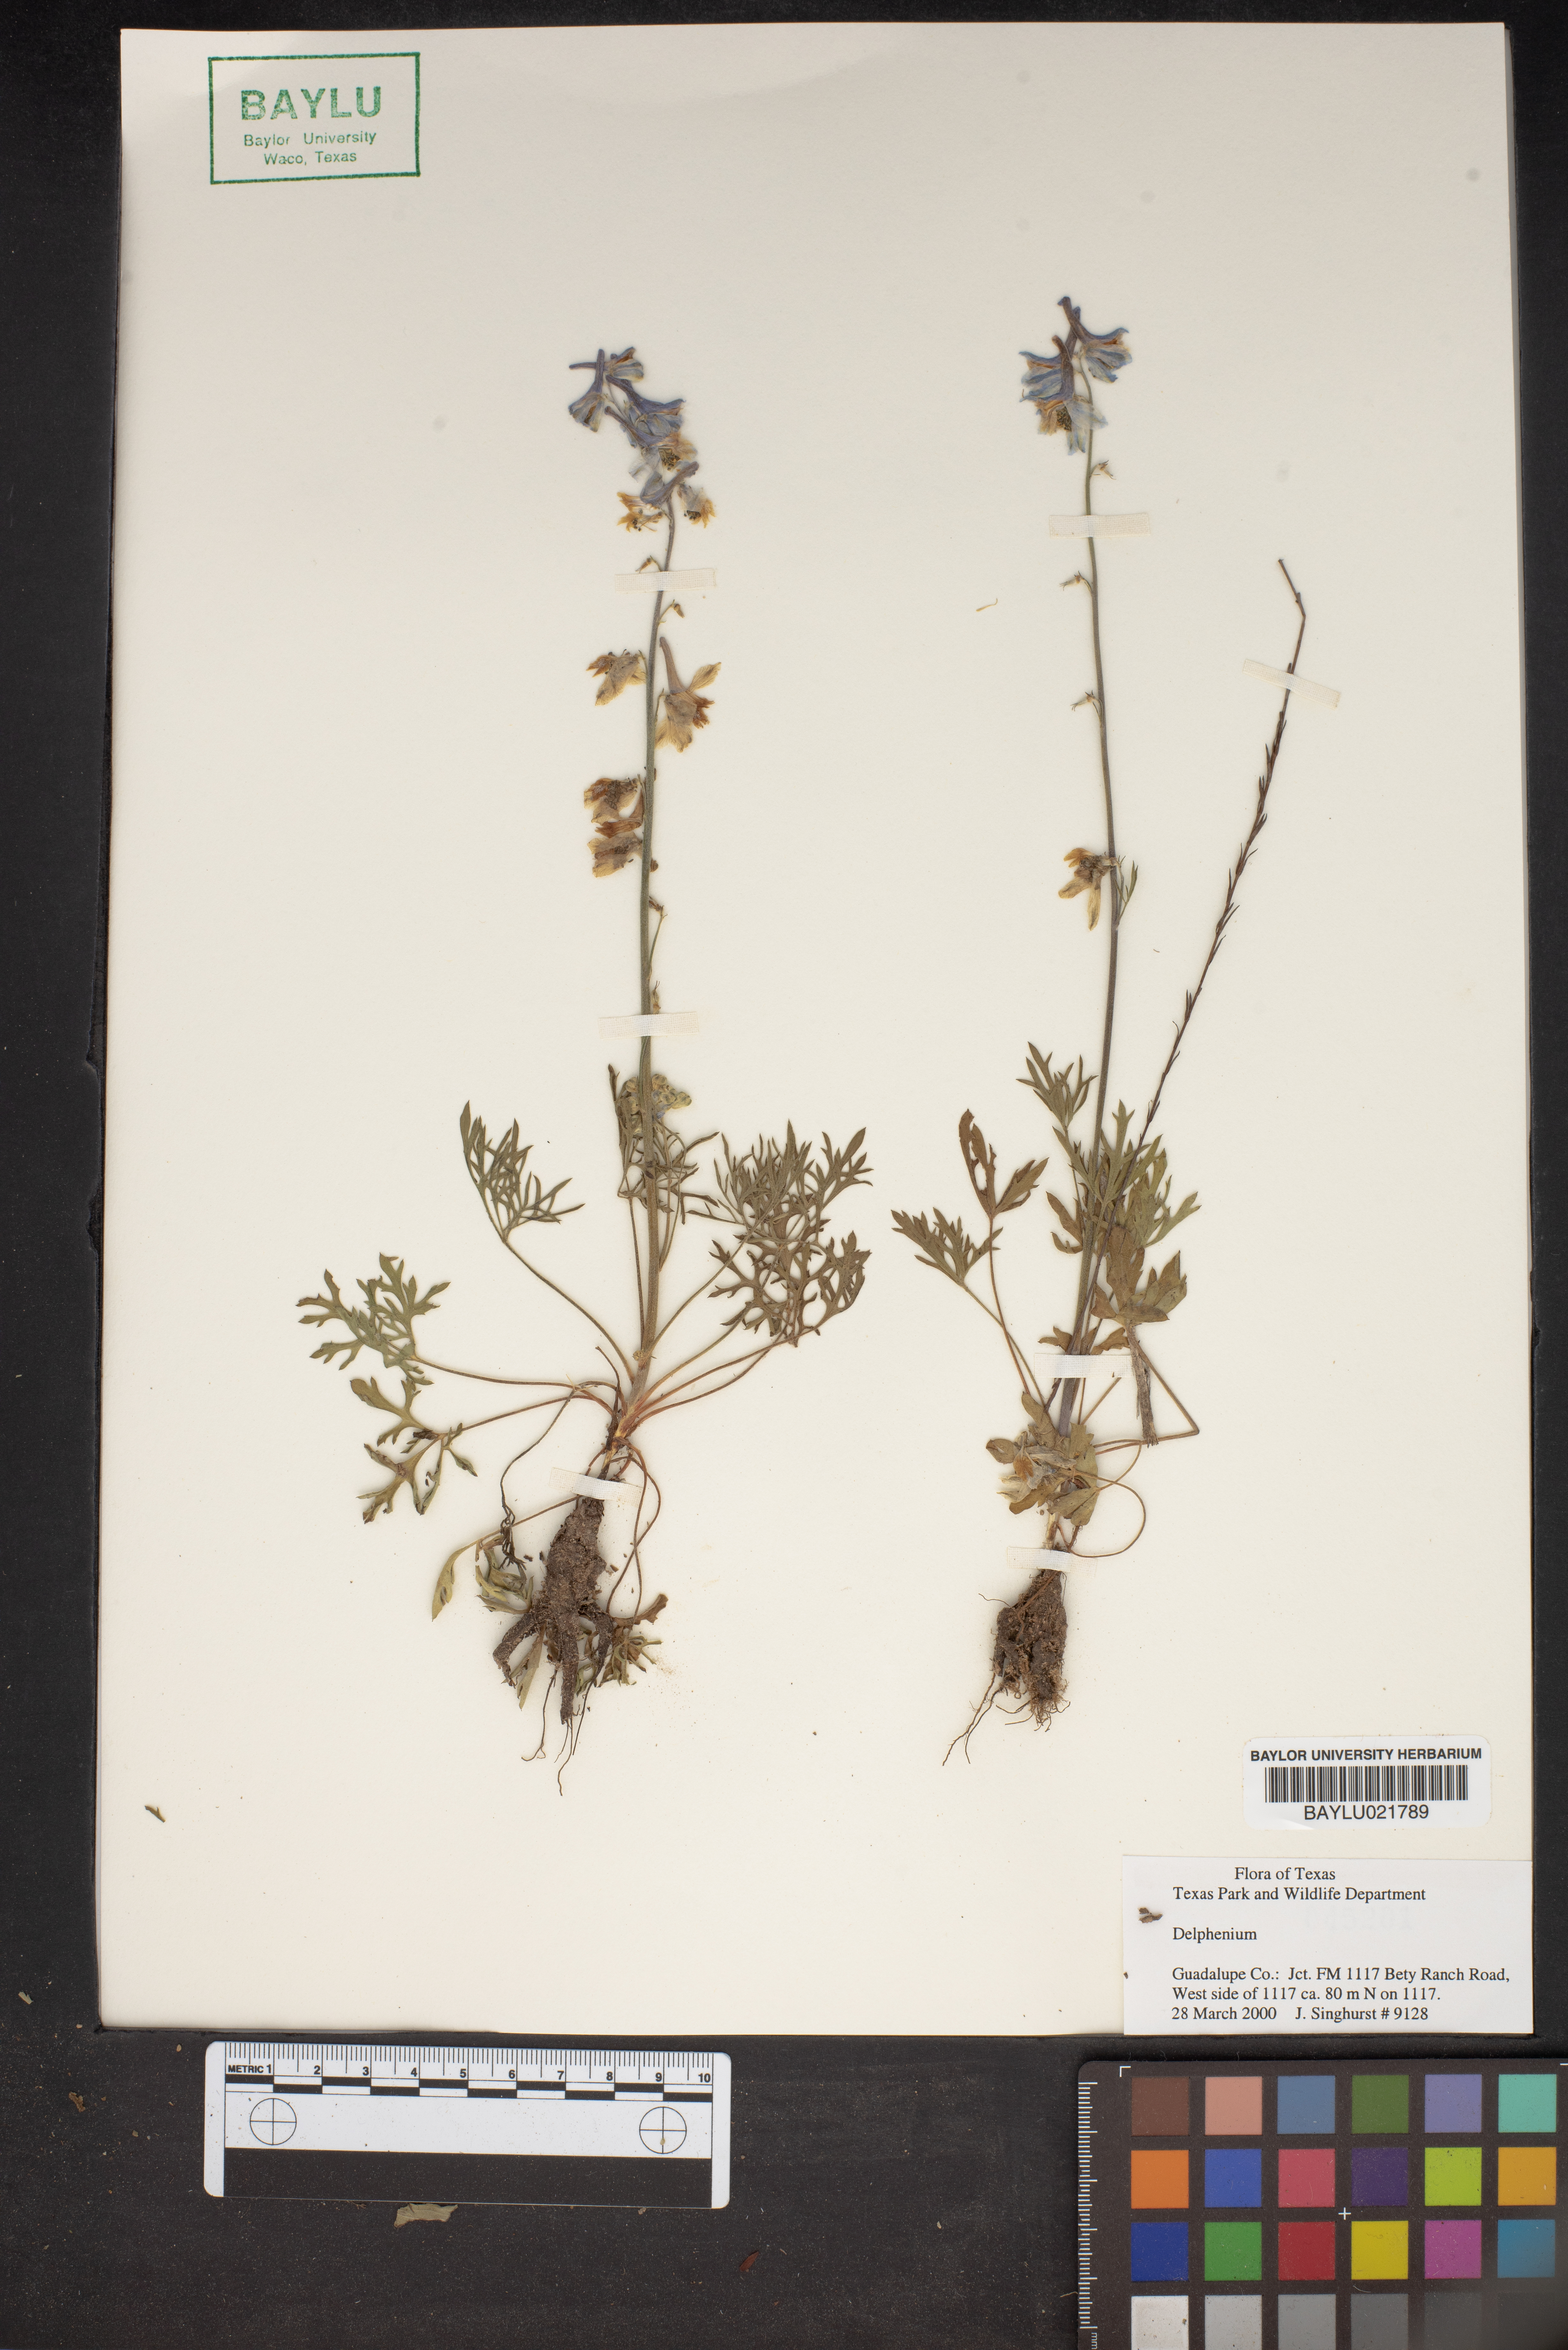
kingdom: Plantae
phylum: Tracheophyta
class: Magnoliopsida
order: Ranunculales
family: Ranunculaceae
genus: Delphinium
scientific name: Delphinium
